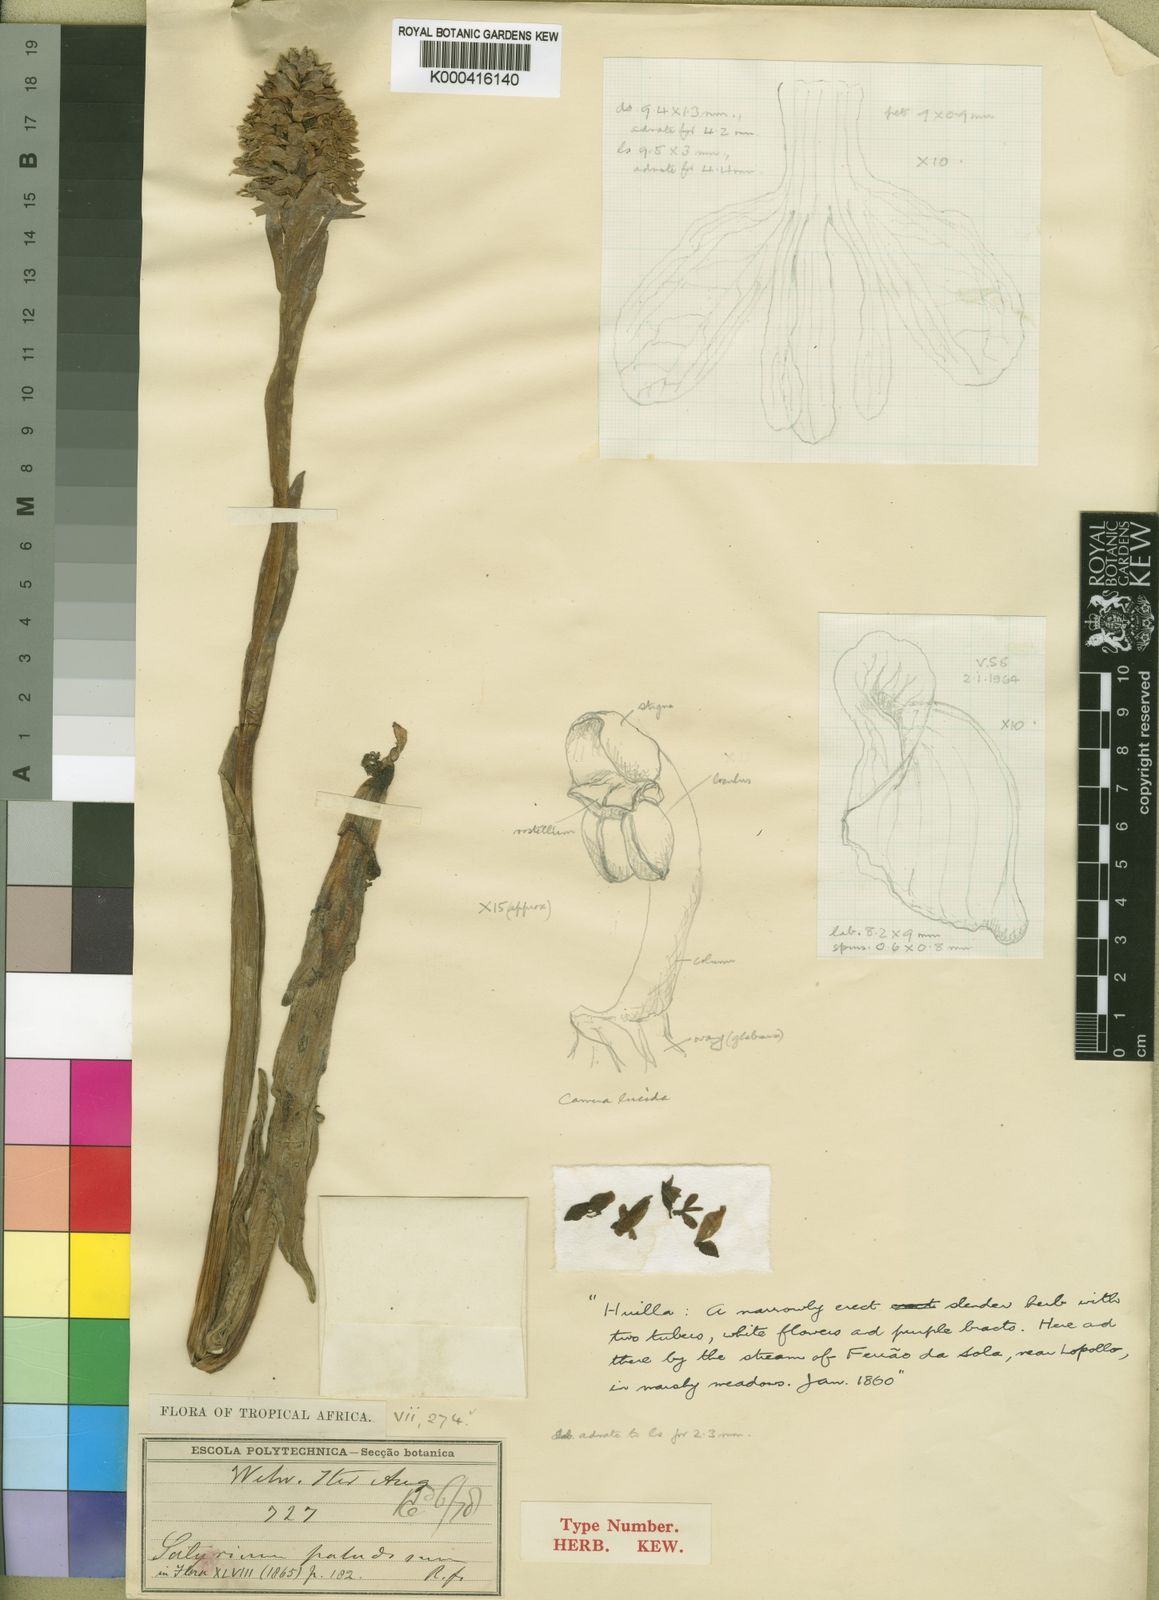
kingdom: Plantae
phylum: Tracheophyta
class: Liliopsida
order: Asparagales
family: Orchidaceae
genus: Satyrium
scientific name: Satyrium paludosum
